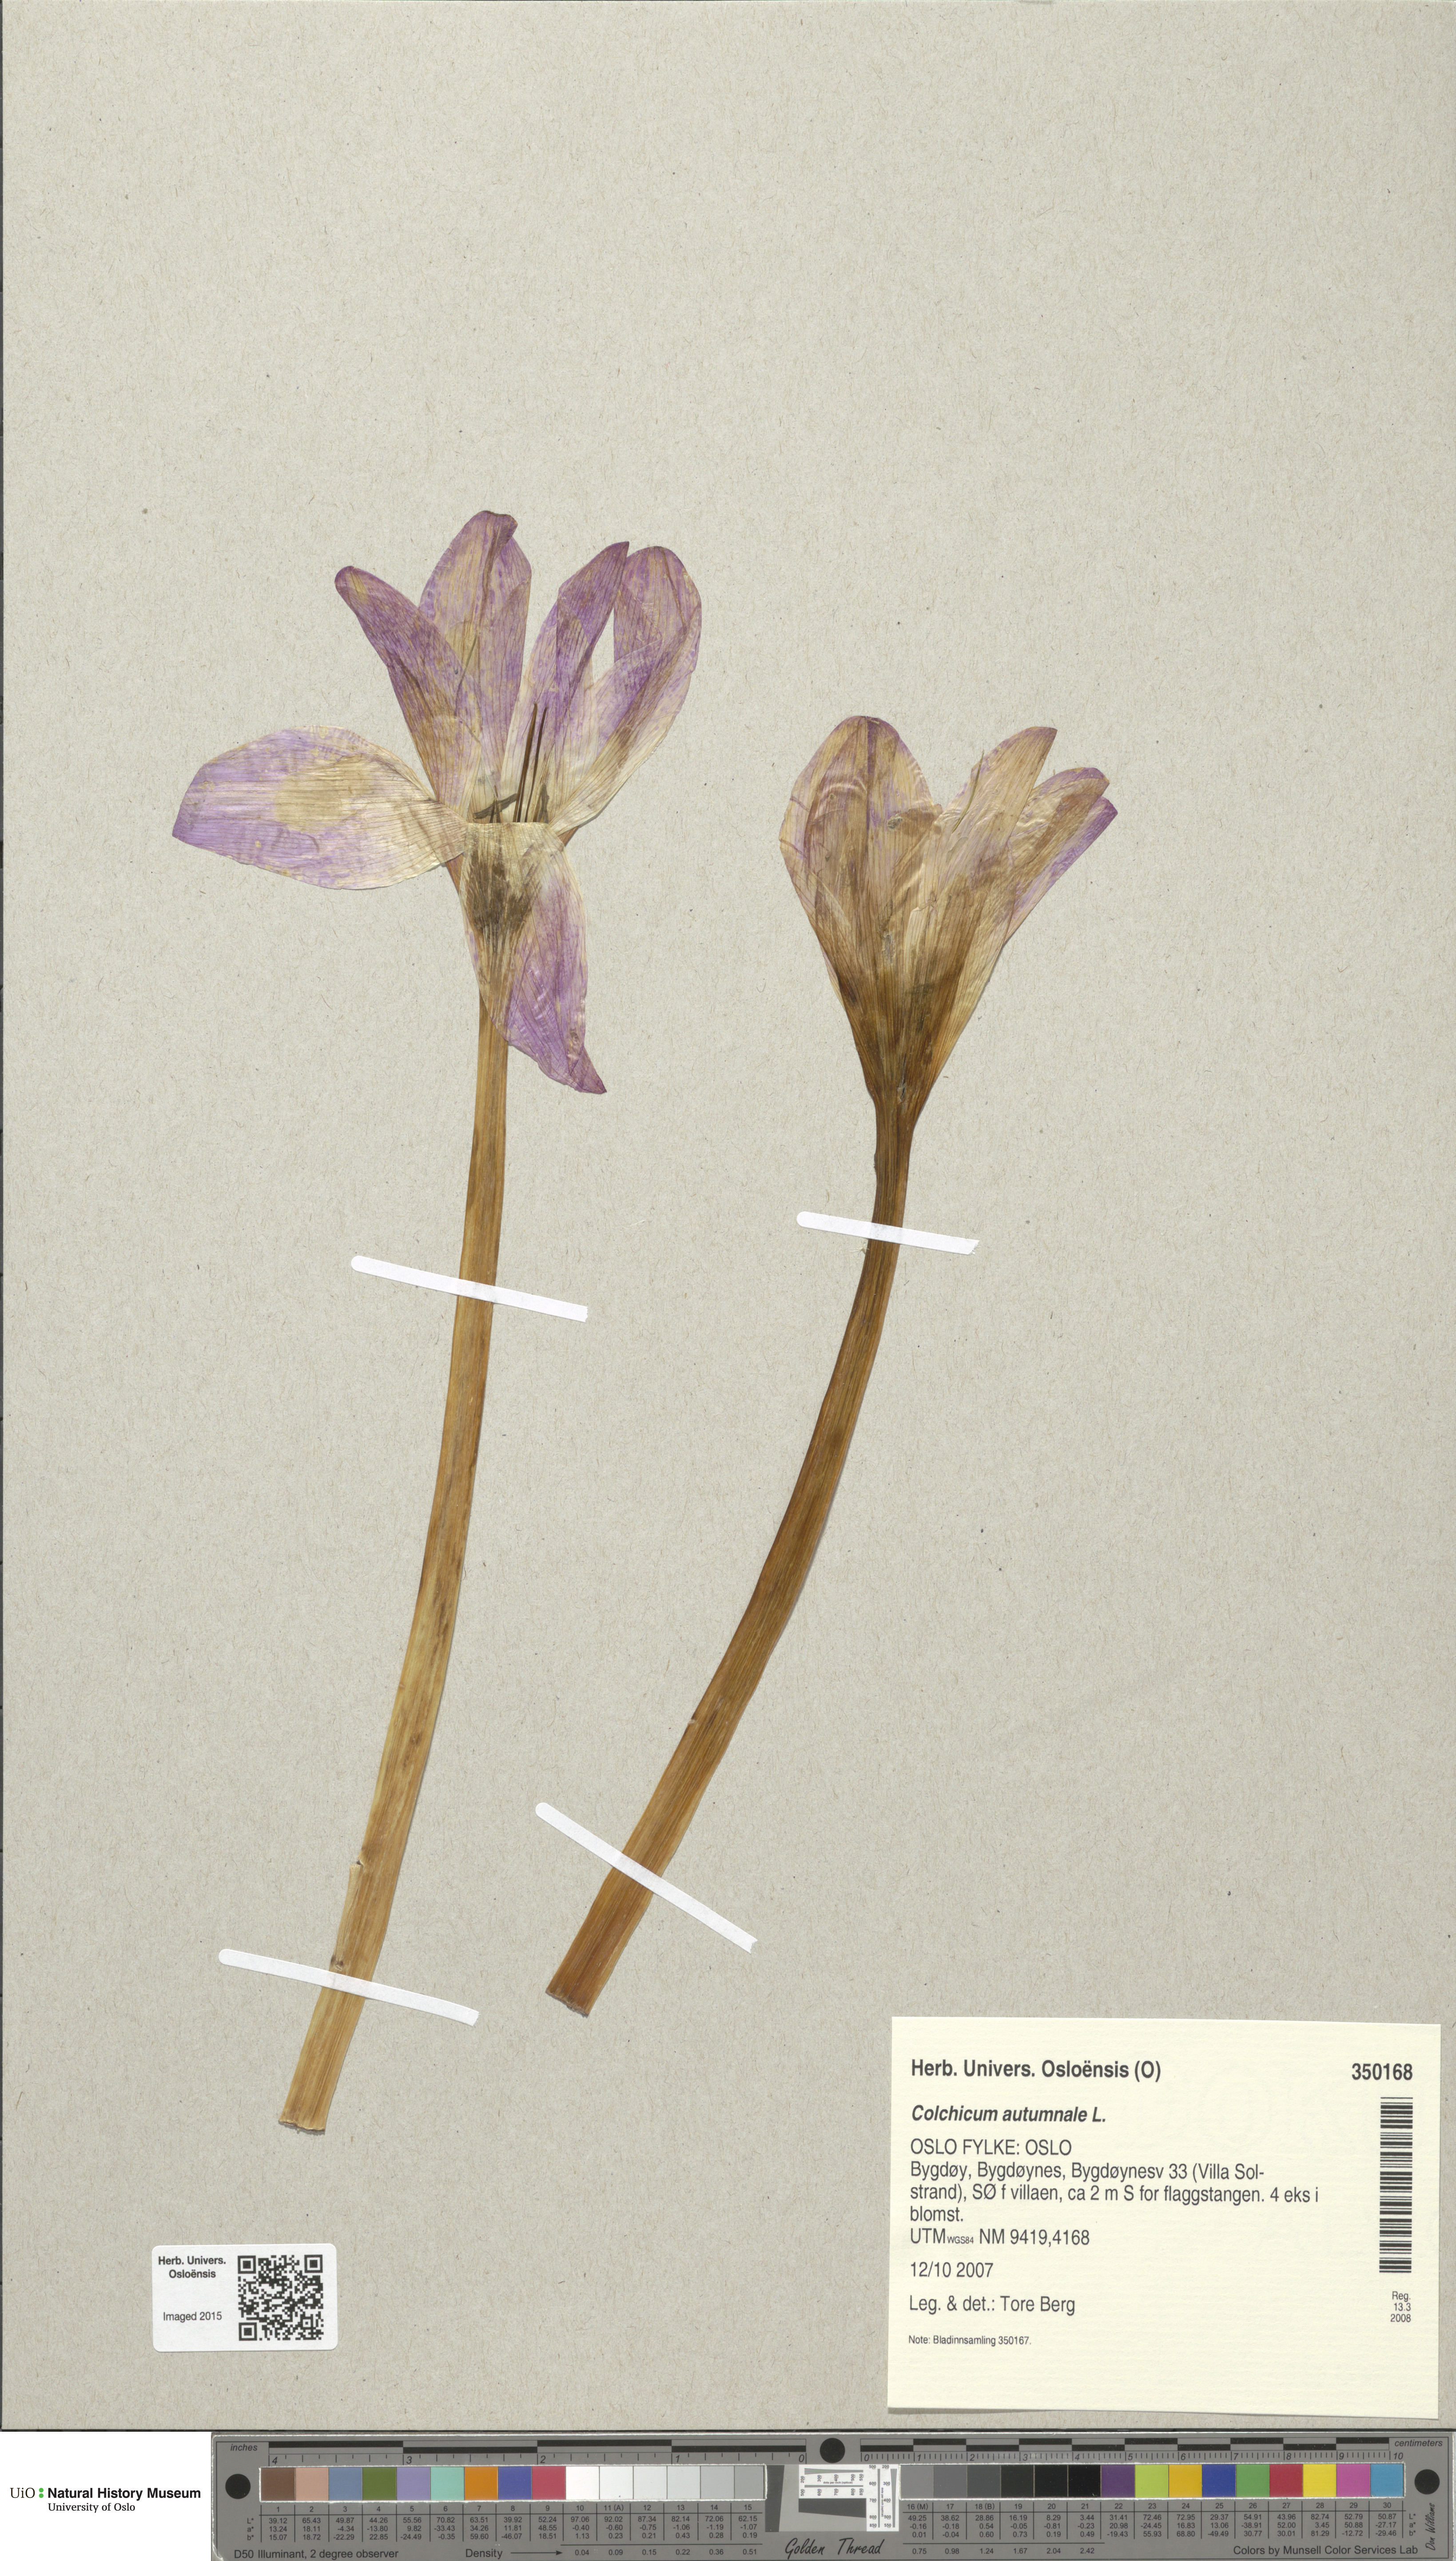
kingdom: Plantae
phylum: Tracheophyta
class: Liliopsida
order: Liliales
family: Colchicaceae
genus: Colchicum
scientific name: Colchicum autumnale
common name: Autumn crocus
